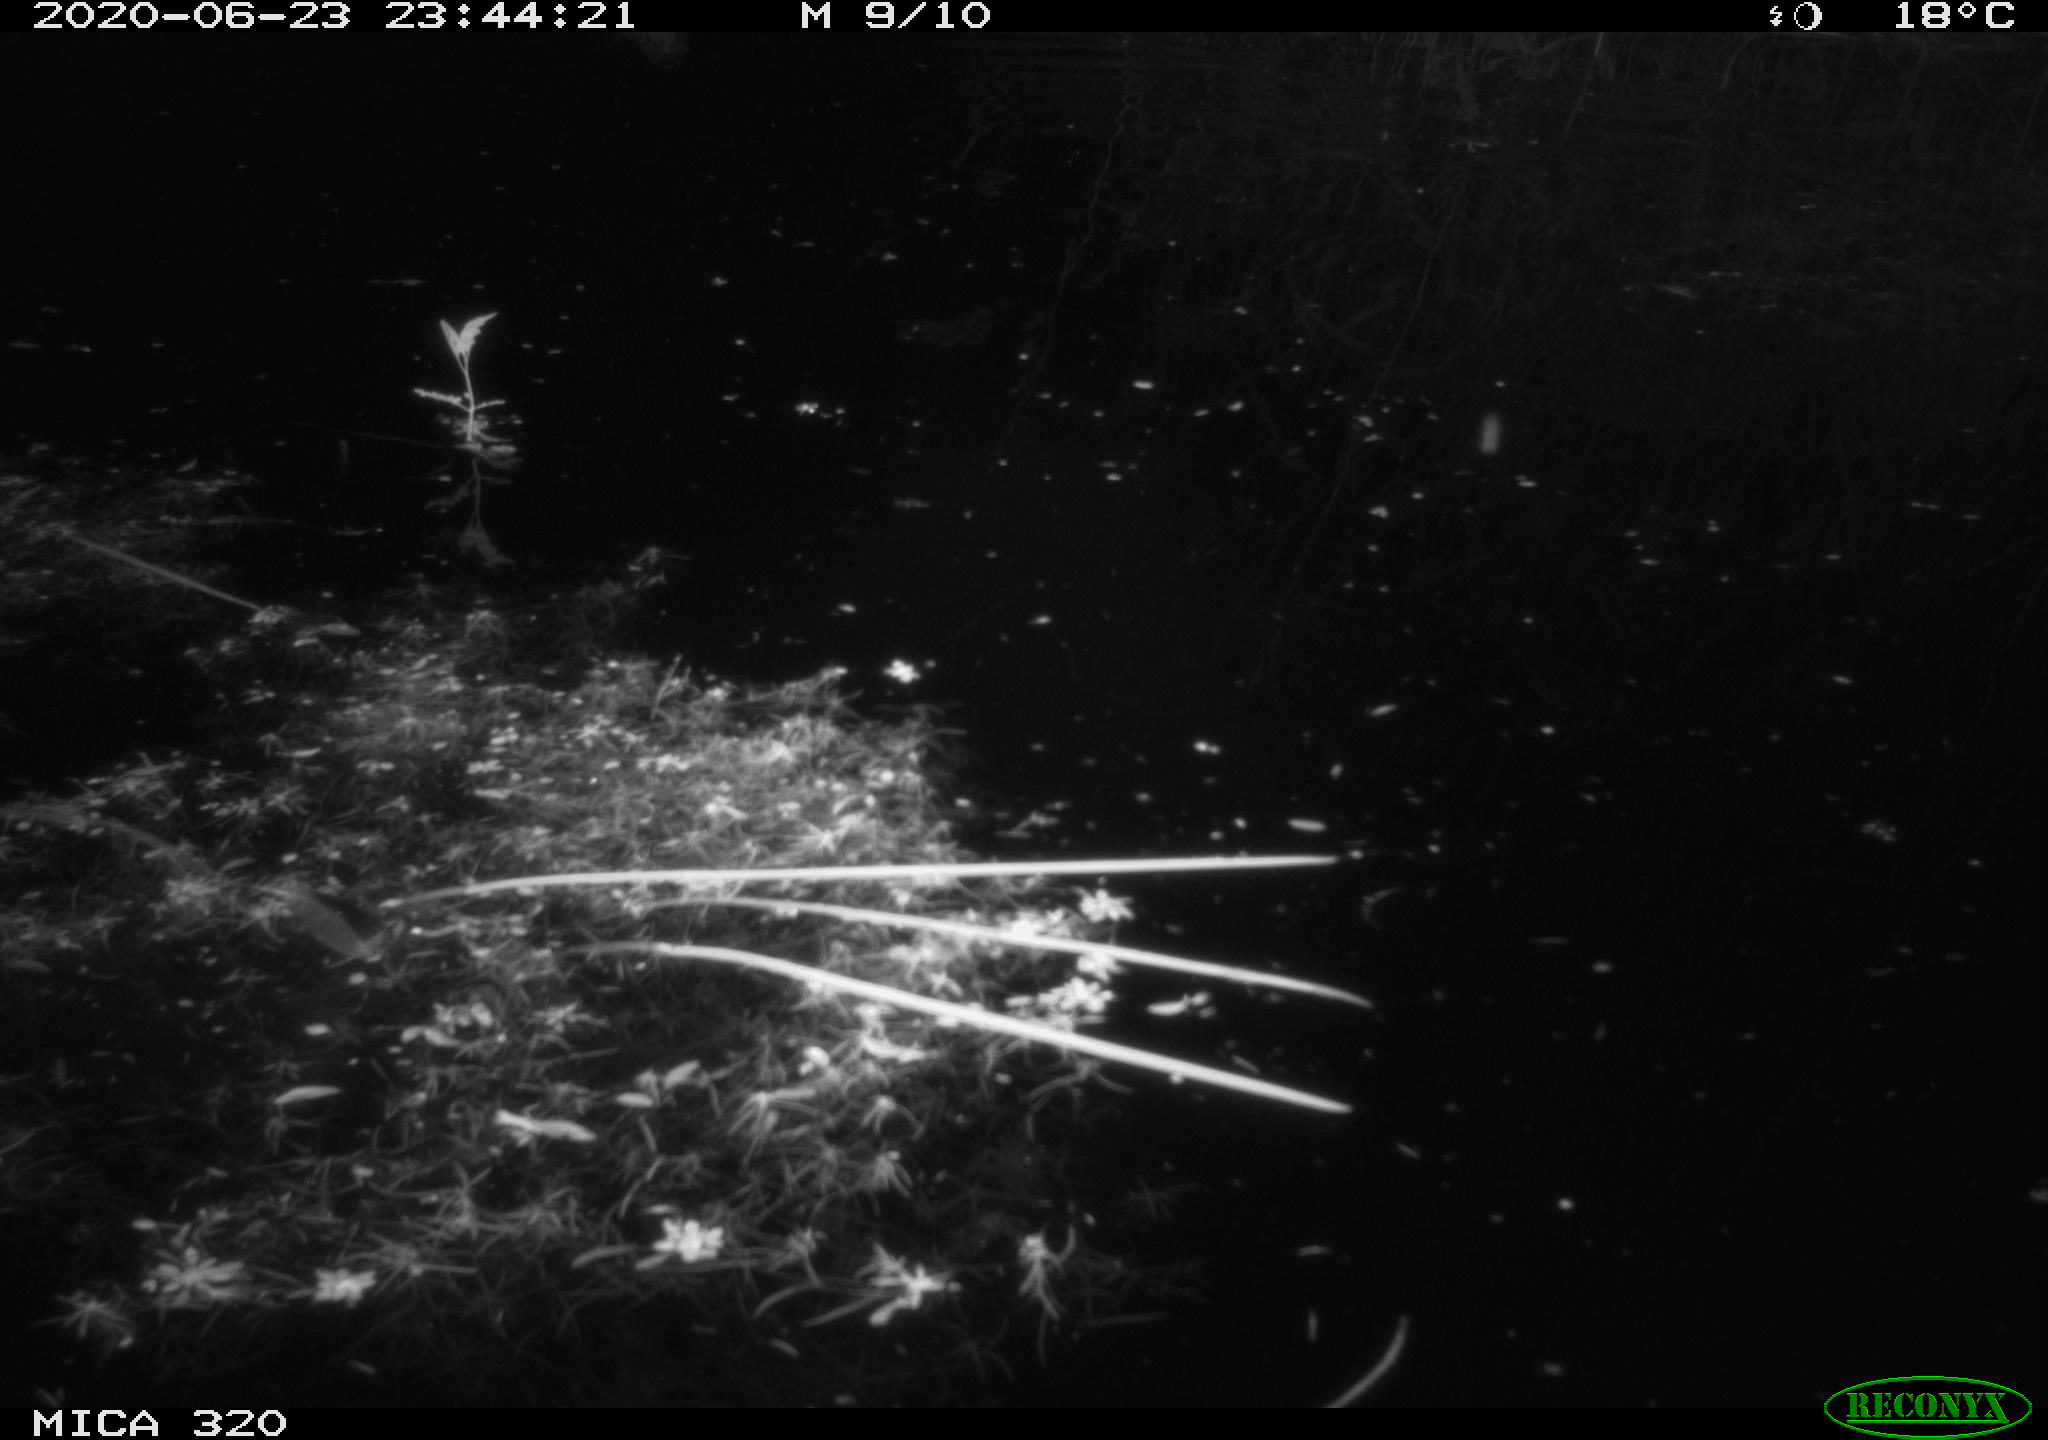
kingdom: Animalia
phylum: Chordata
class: Aves
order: Anseriformes
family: Anatidae
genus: Anas
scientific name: Anas platyrhynchos
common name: Mallard
